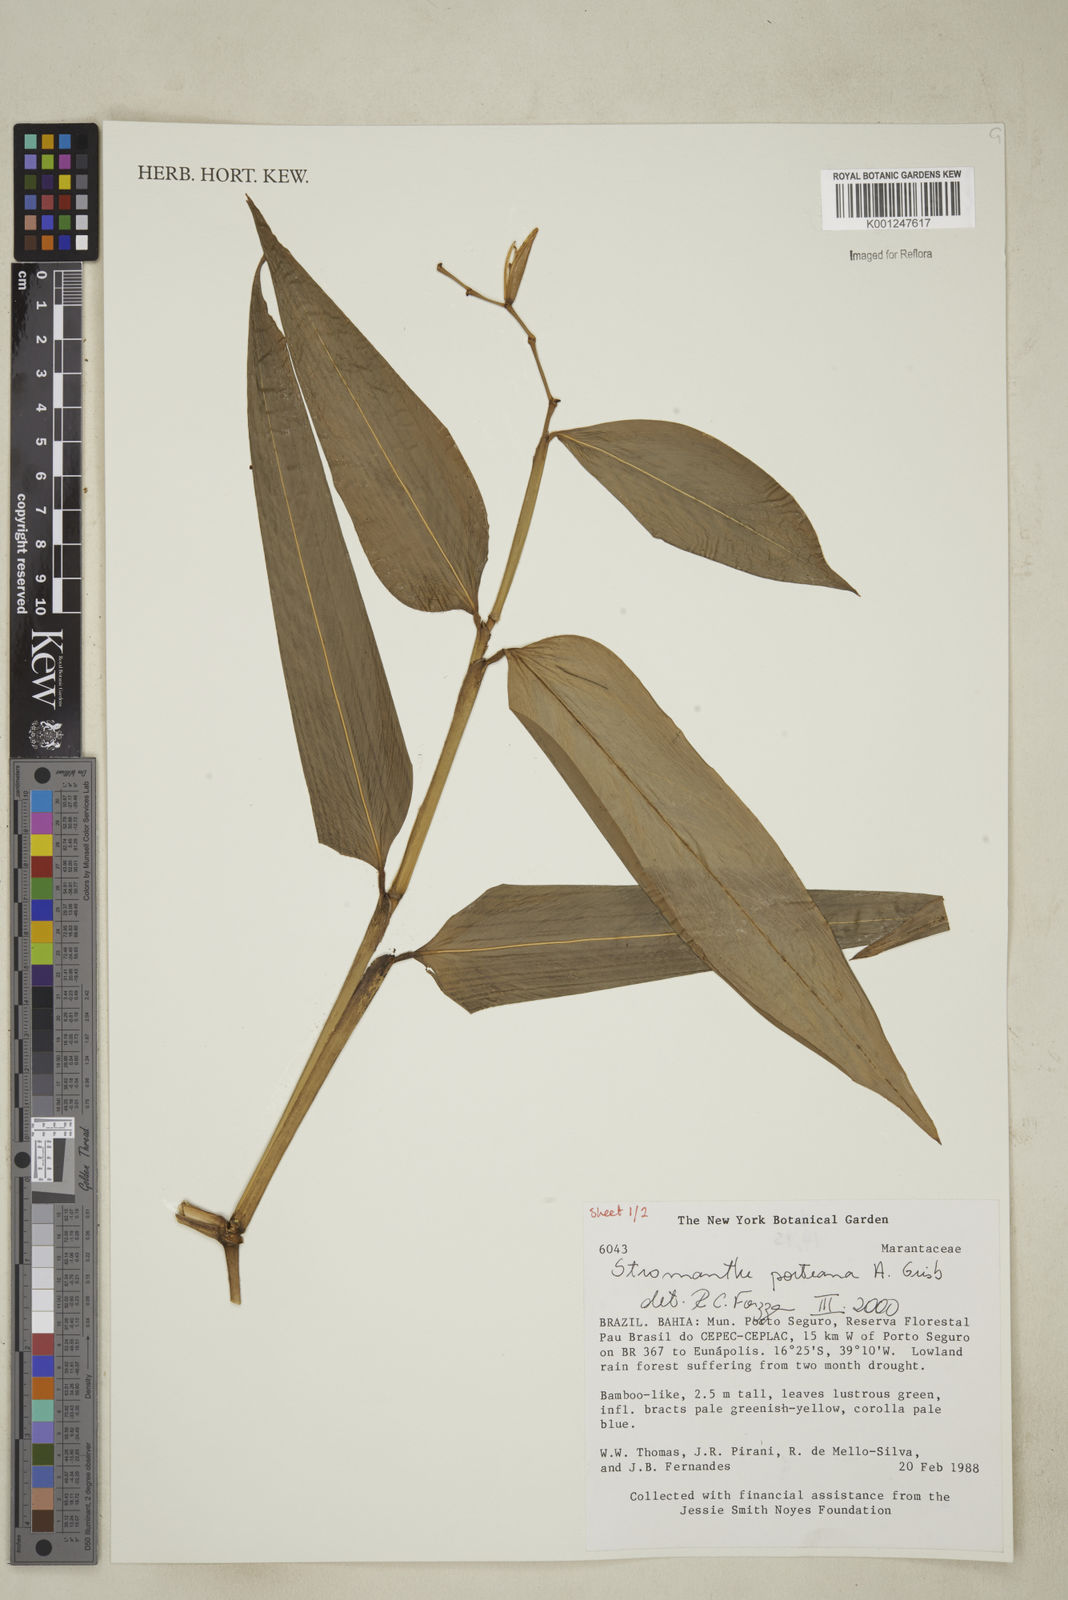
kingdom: Plantae
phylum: Tracheophyta
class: Liliopsida
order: Zingiberales
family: Marantaceae
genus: Stromanthe
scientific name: Stromanthe porteana
